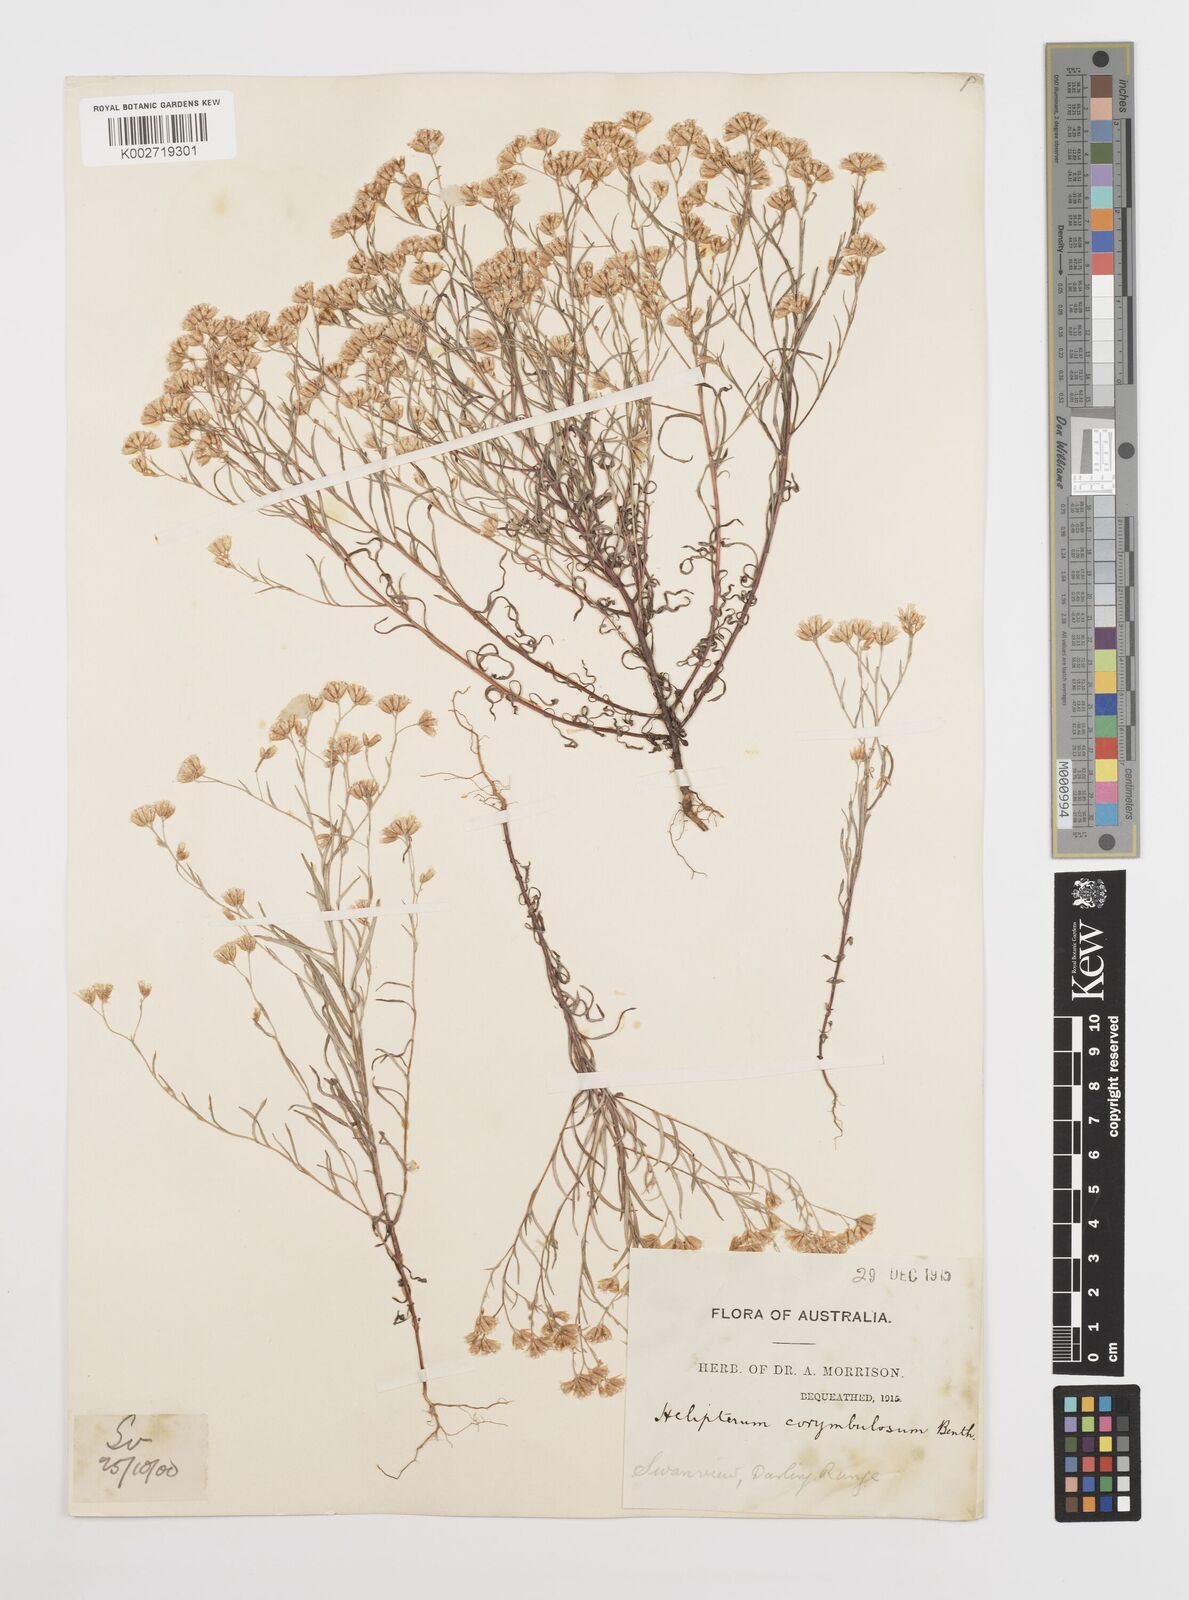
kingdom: Plantae
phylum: Tracheophyta
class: Magnoliopsida
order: Asterales
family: Asteraceae
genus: Rhodanthe
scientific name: Rhodanthe corymbosa
